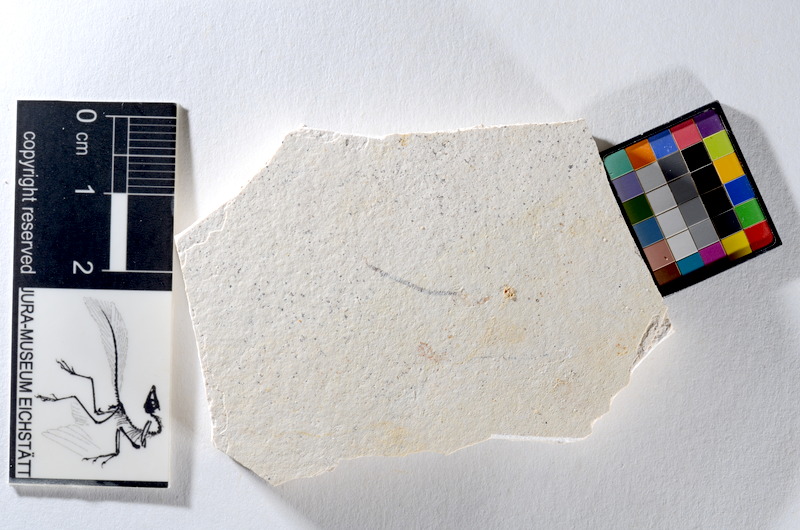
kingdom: Animalia
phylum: Chordata
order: Salmoniformes
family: Orthogonikleithridae
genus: Orthogonikleithrus
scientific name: Orthogonikleithrus hoelli
